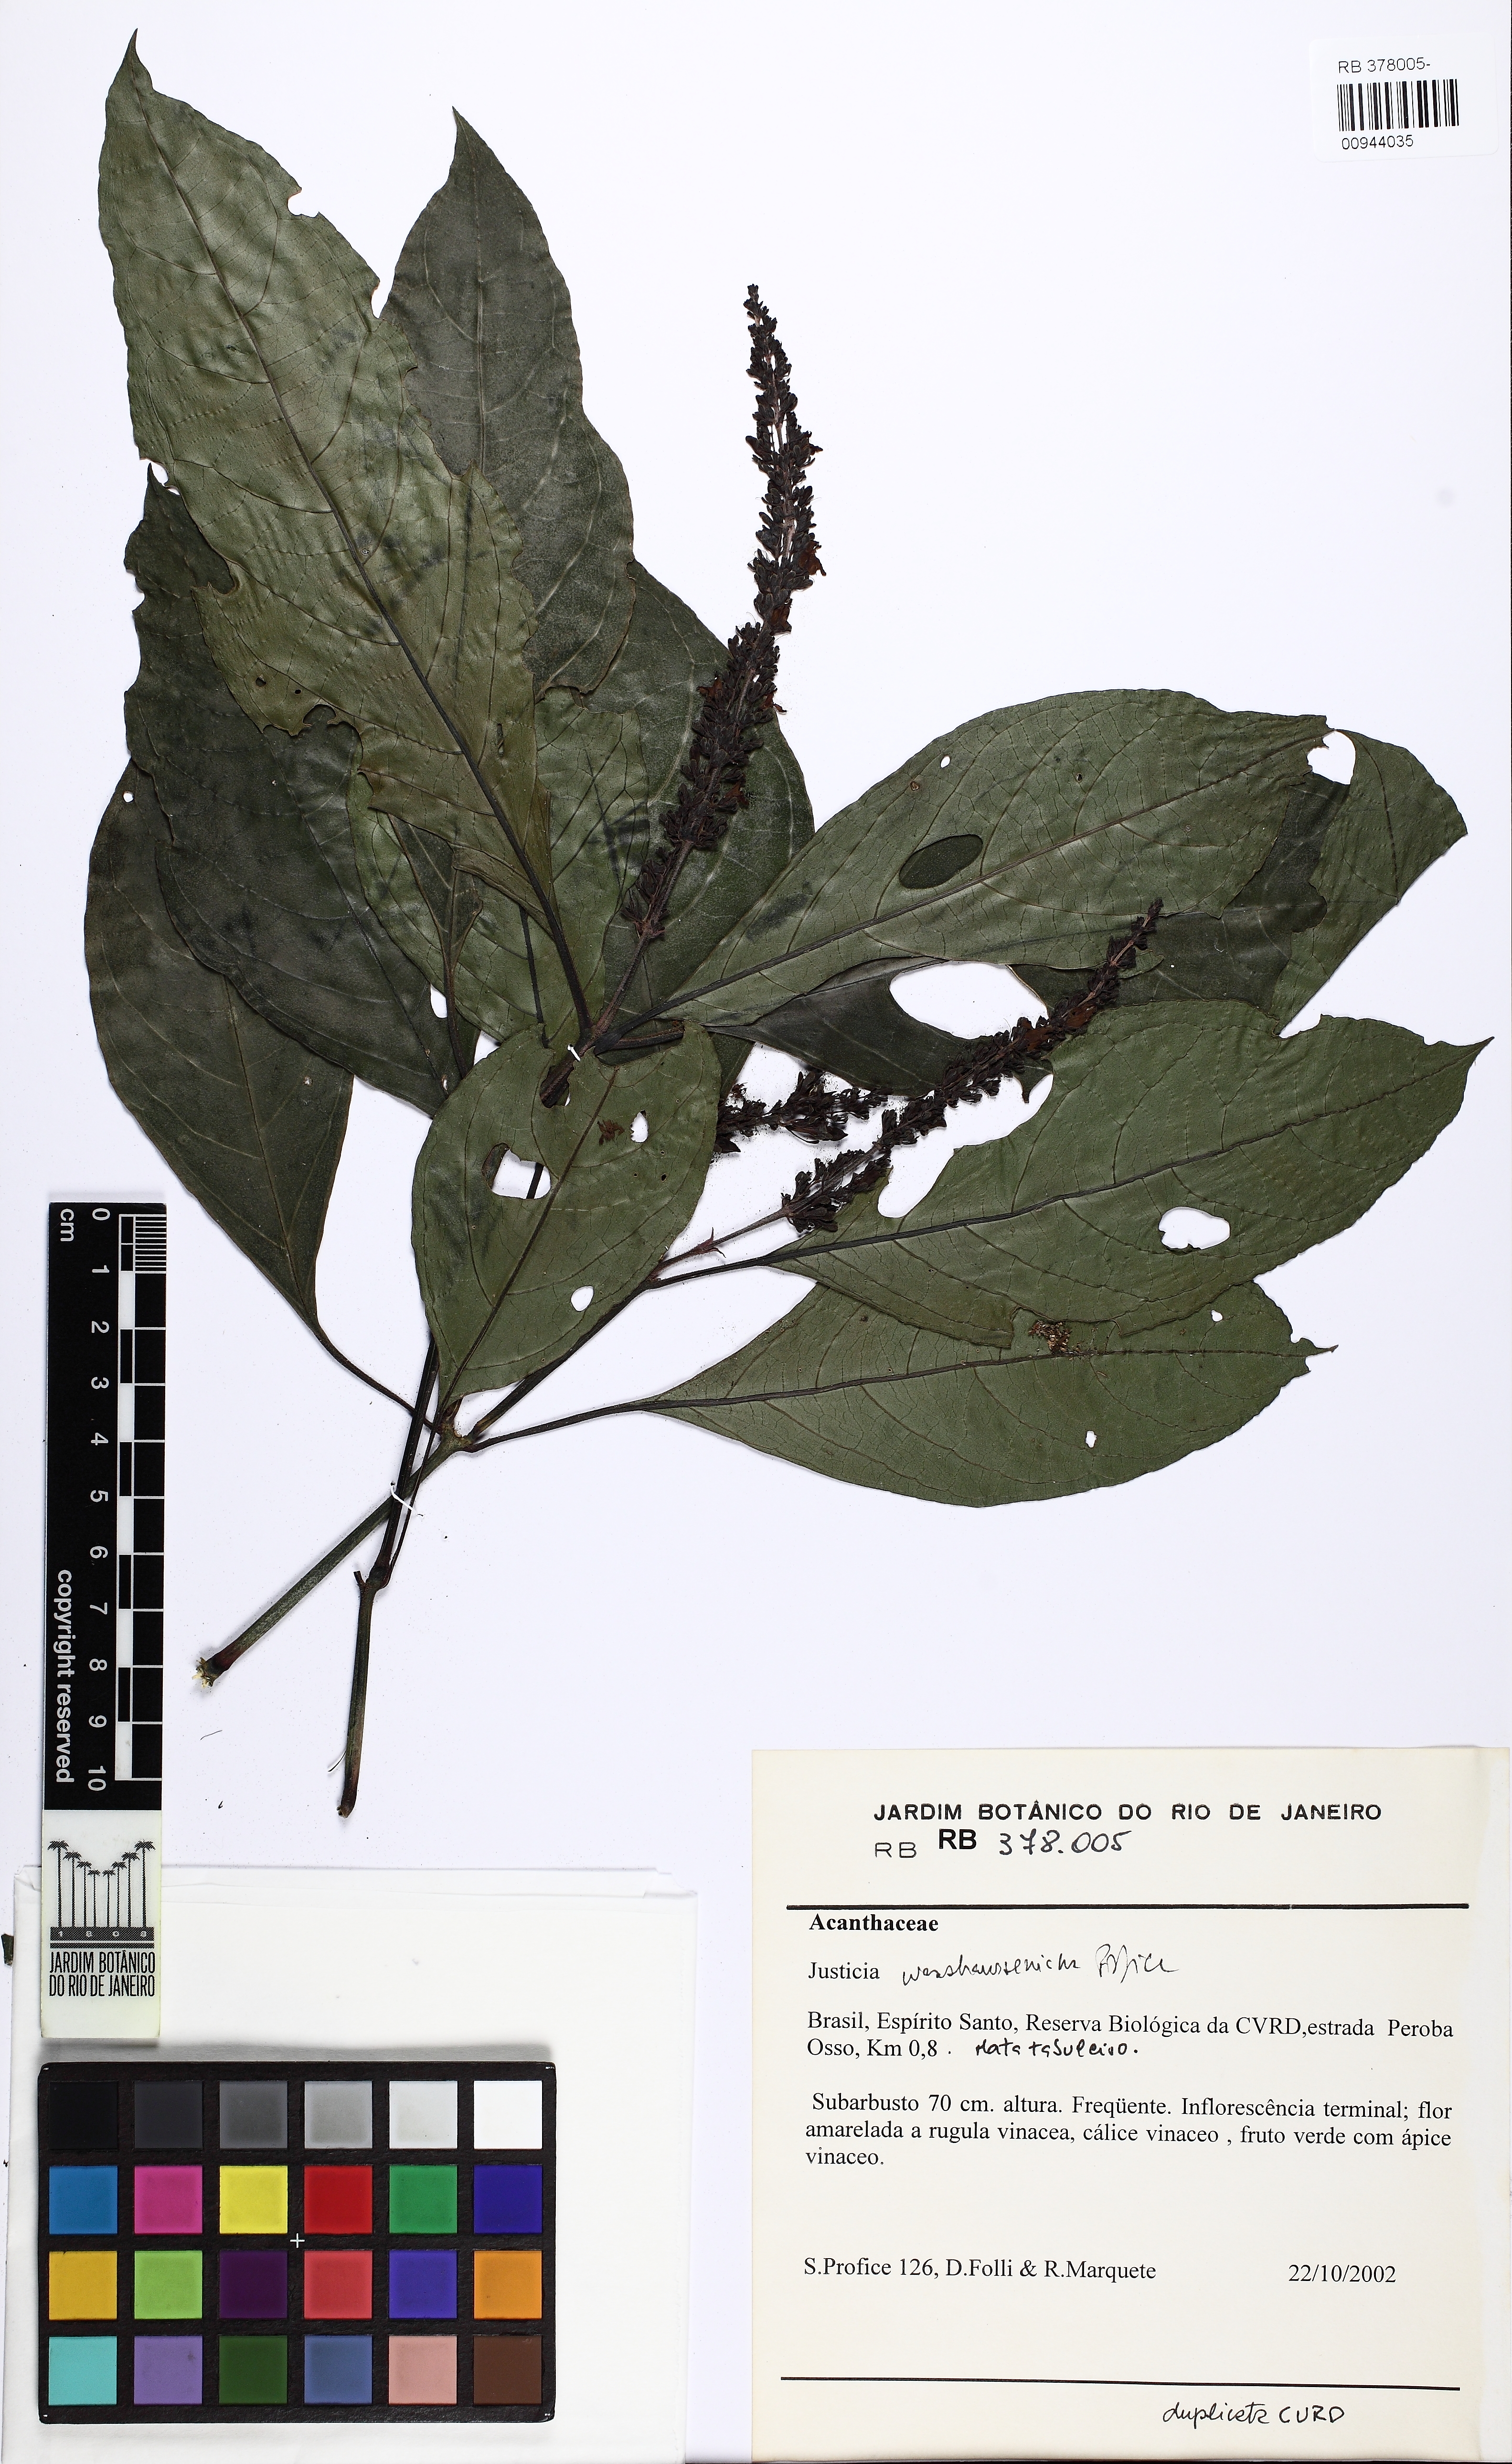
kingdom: Plantae
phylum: Tracheophyta
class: Magnoliopsida
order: Lamiales
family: Acanthaceae
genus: Justicia
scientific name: Justicia wasshauseniana
